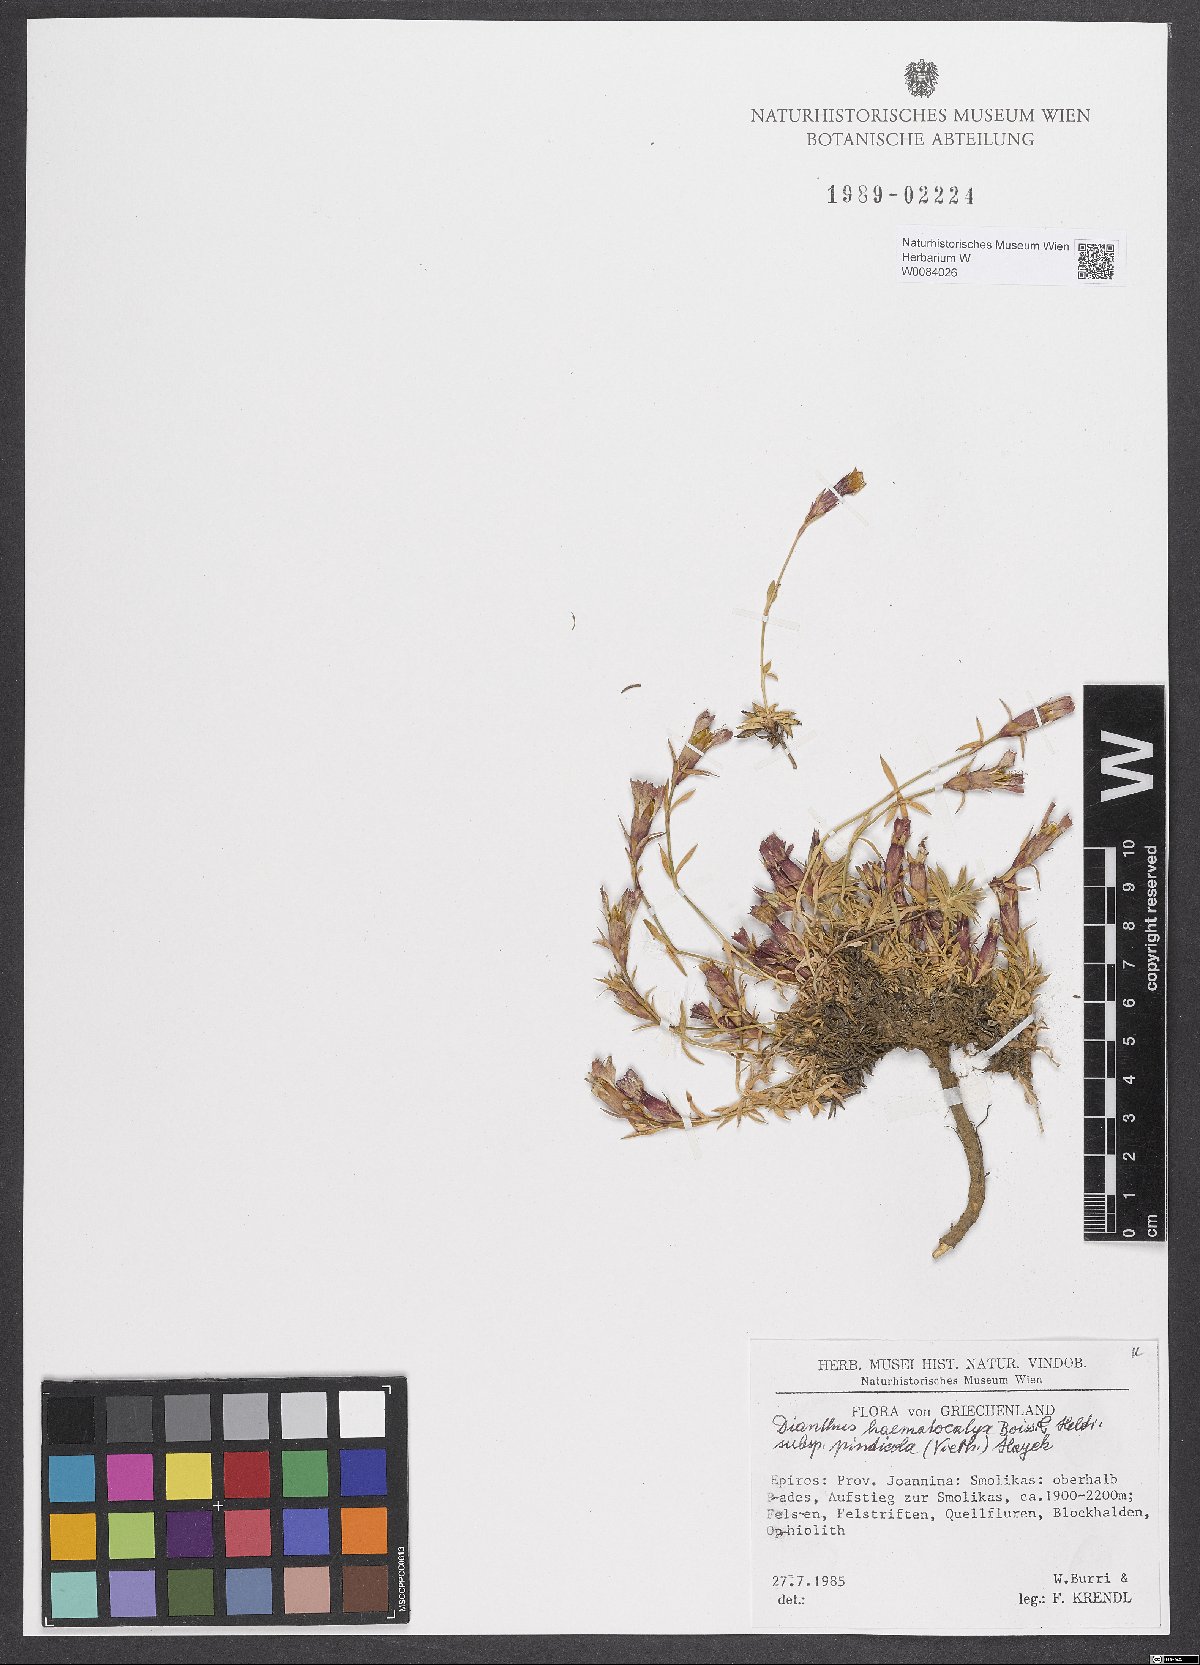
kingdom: Plantae
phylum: Tracheophyta
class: Magnoliopsida
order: Caryophyllales
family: Caryophyllaceae
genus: Dianthus
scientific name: Dianthus haematocalyx
